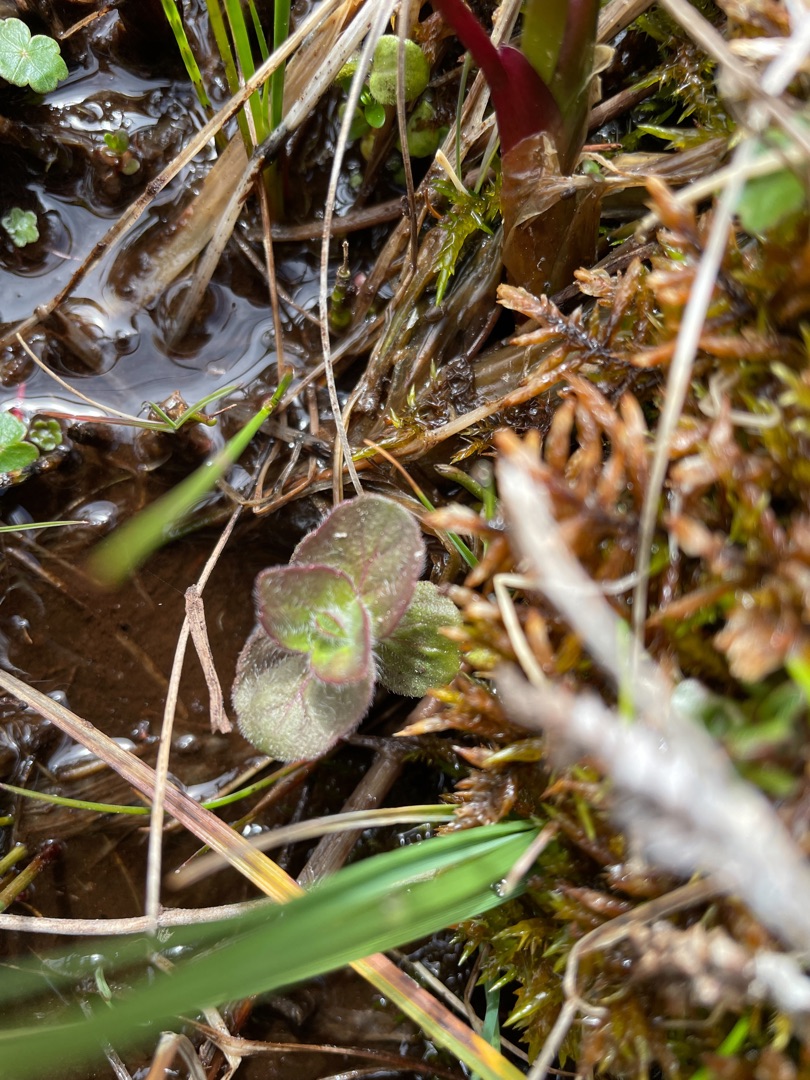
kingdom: Plantae
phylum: Tracheophyta
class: Magnoliopsida
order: Lamiales
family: Lamiaceae
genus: Mentha
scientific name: Mentha aquatica
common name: Vand-mynte
